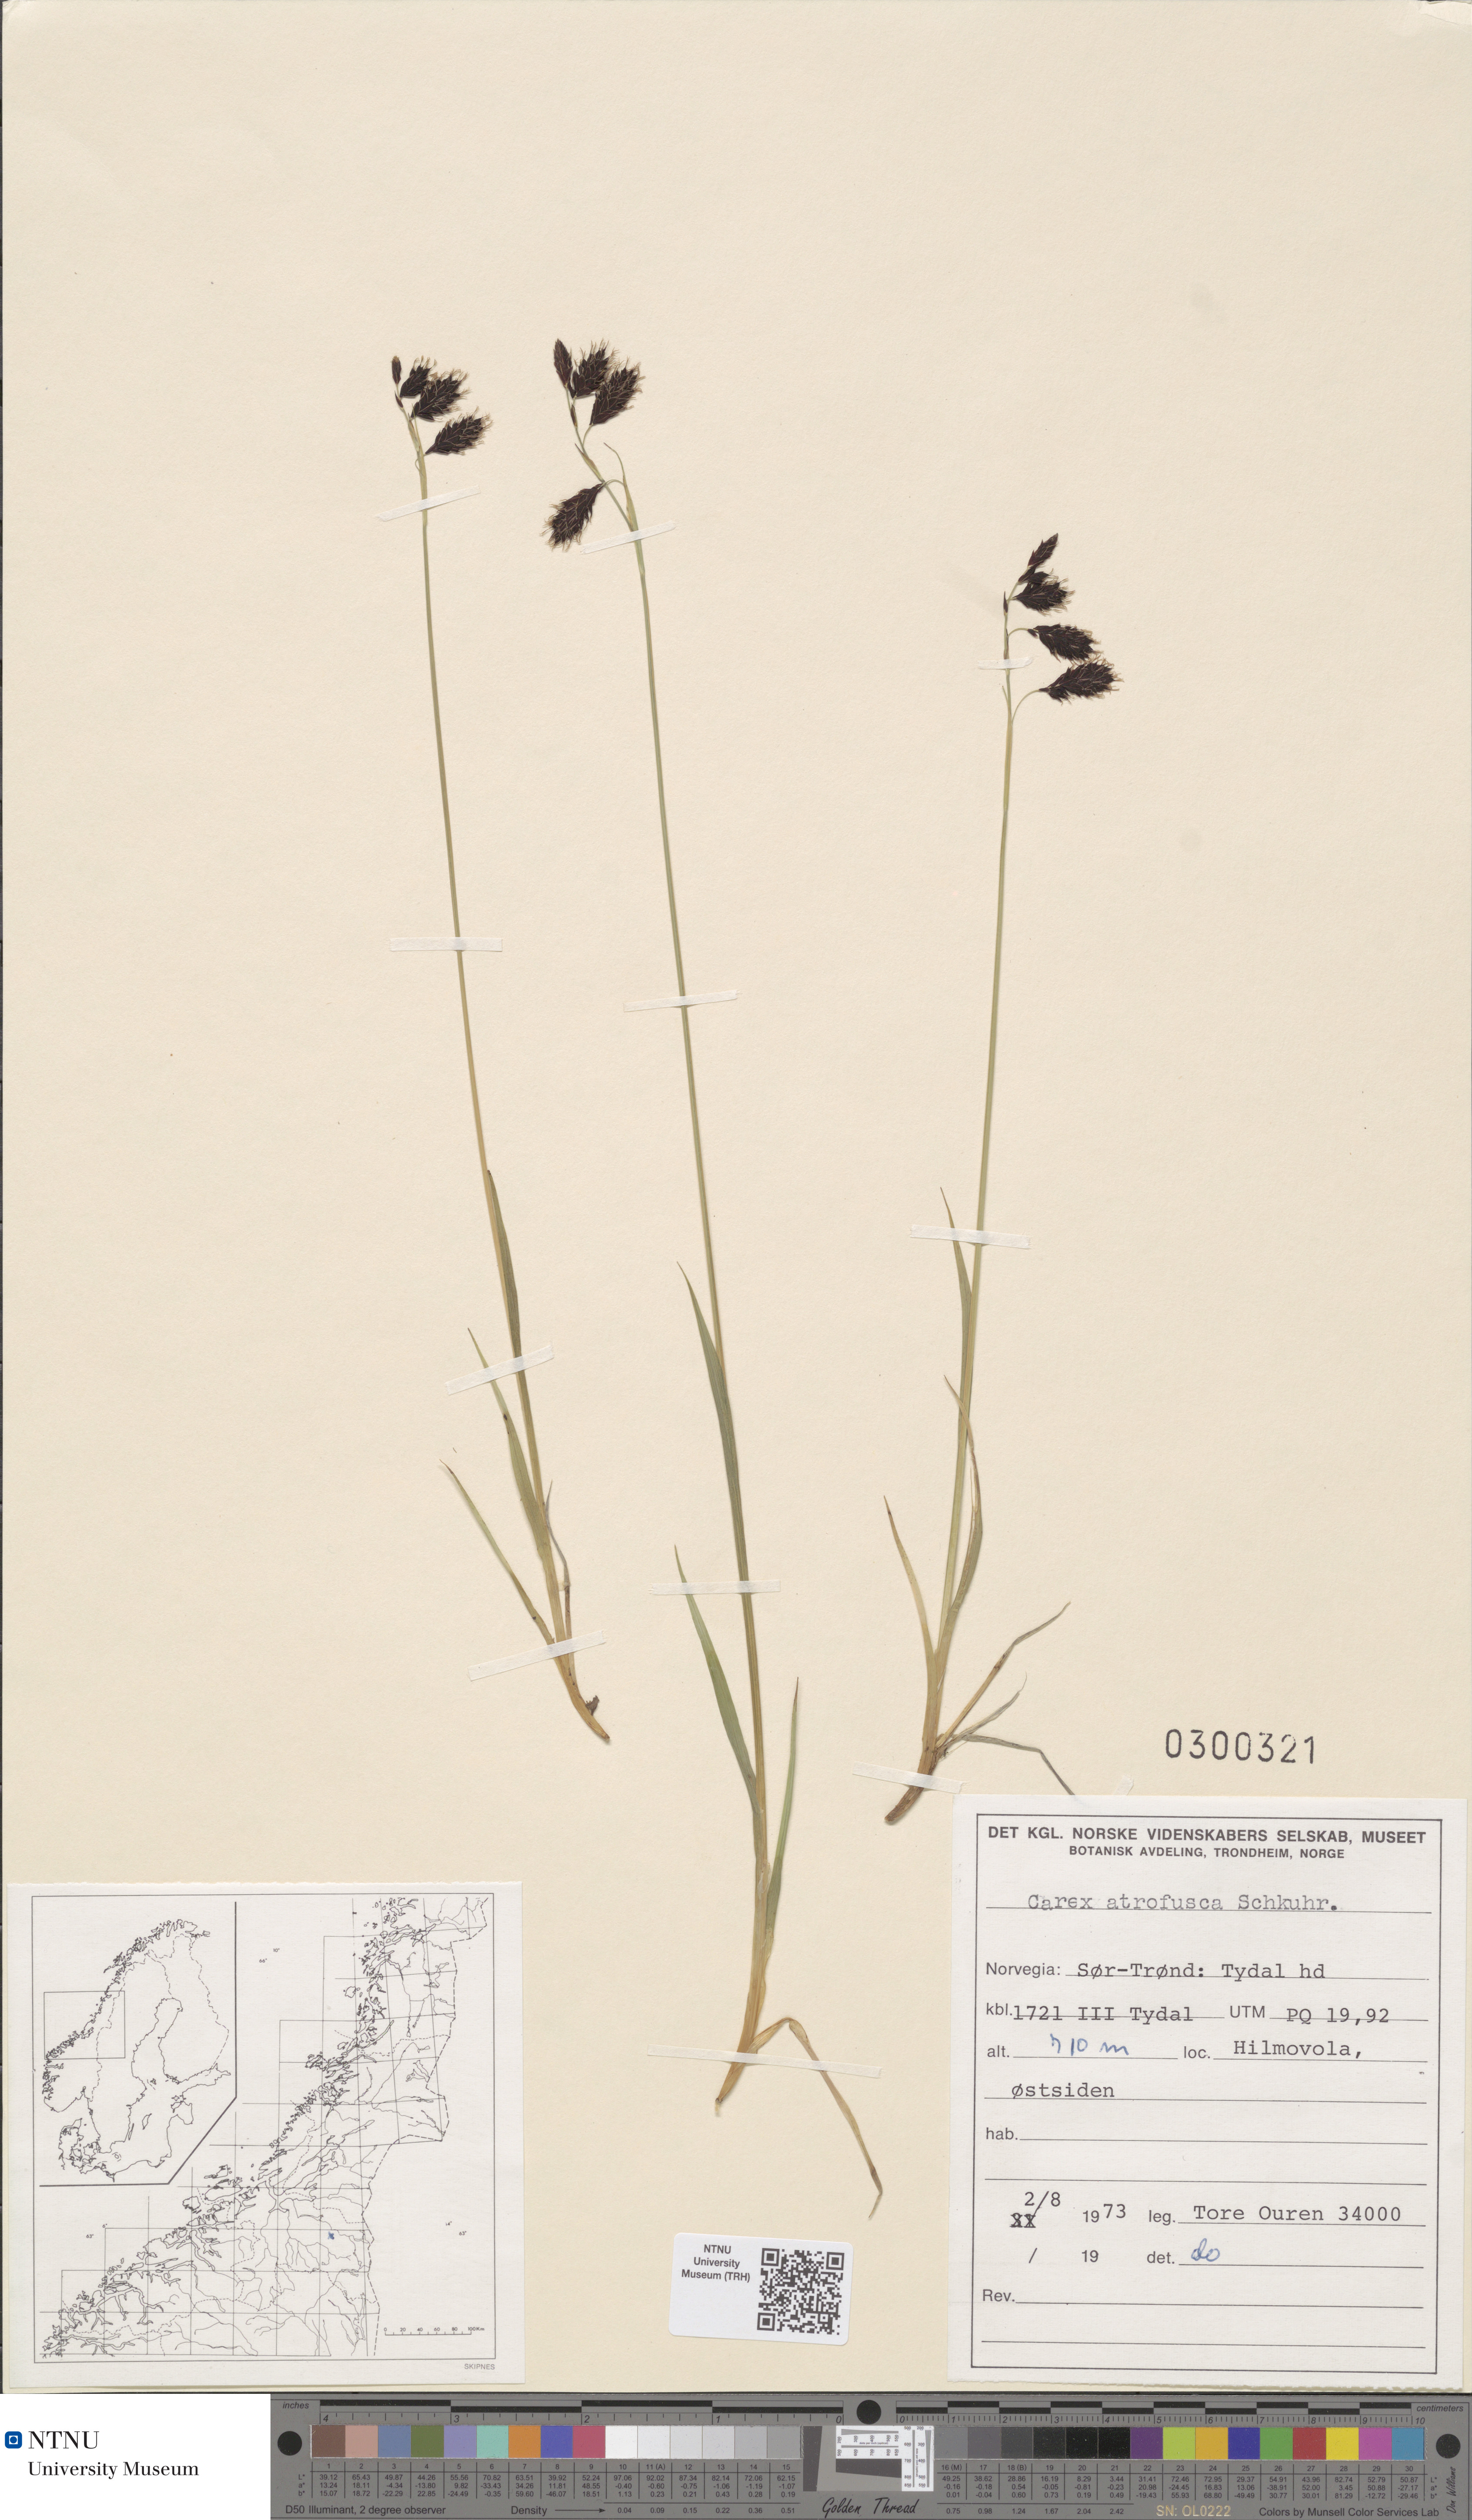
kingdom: Plantae
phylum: Tracheophyta
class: Liliopsida
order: Poales
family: Cyperaceae
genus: Carex
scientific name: Carex atrofusca
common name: Scorched alpine-sedge
